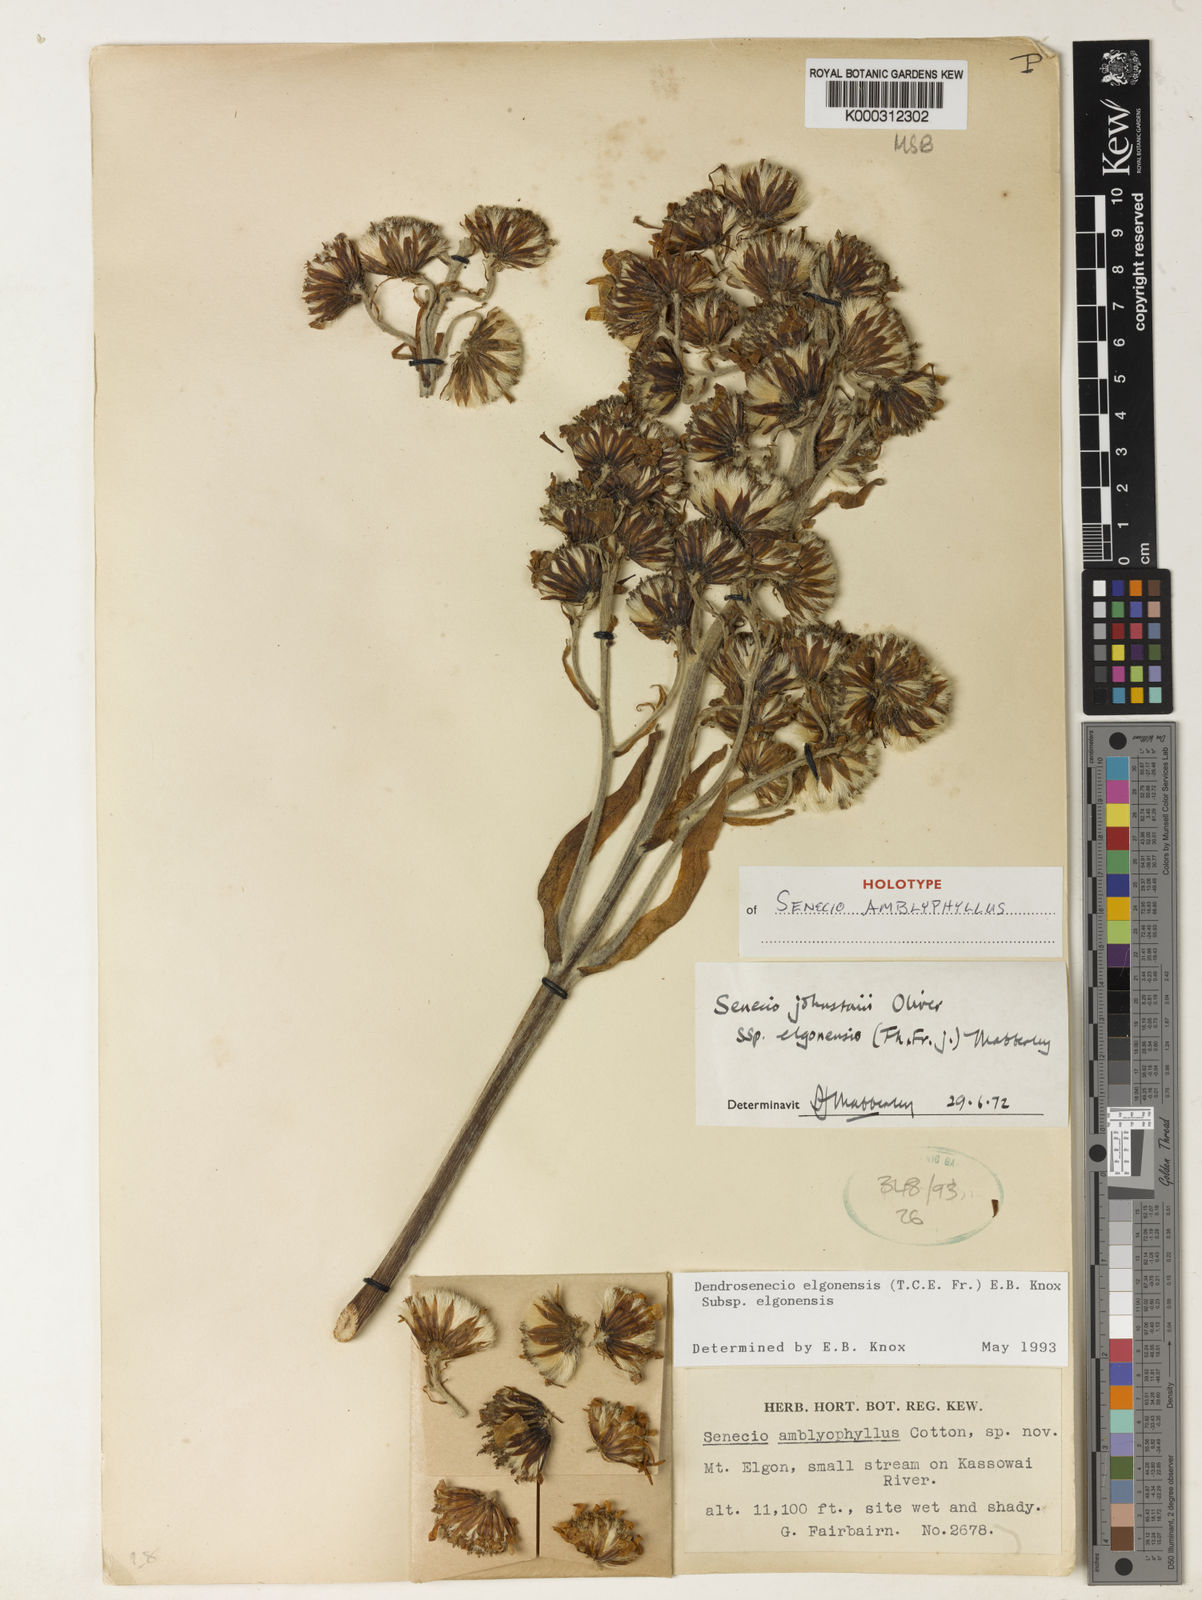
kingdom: Plantae
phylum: Tracheophyta
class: Magnoliopsida
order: Asterales
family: Asteraceae
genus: Dendrosenecio
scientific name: Dendrosenecio elgonensis
